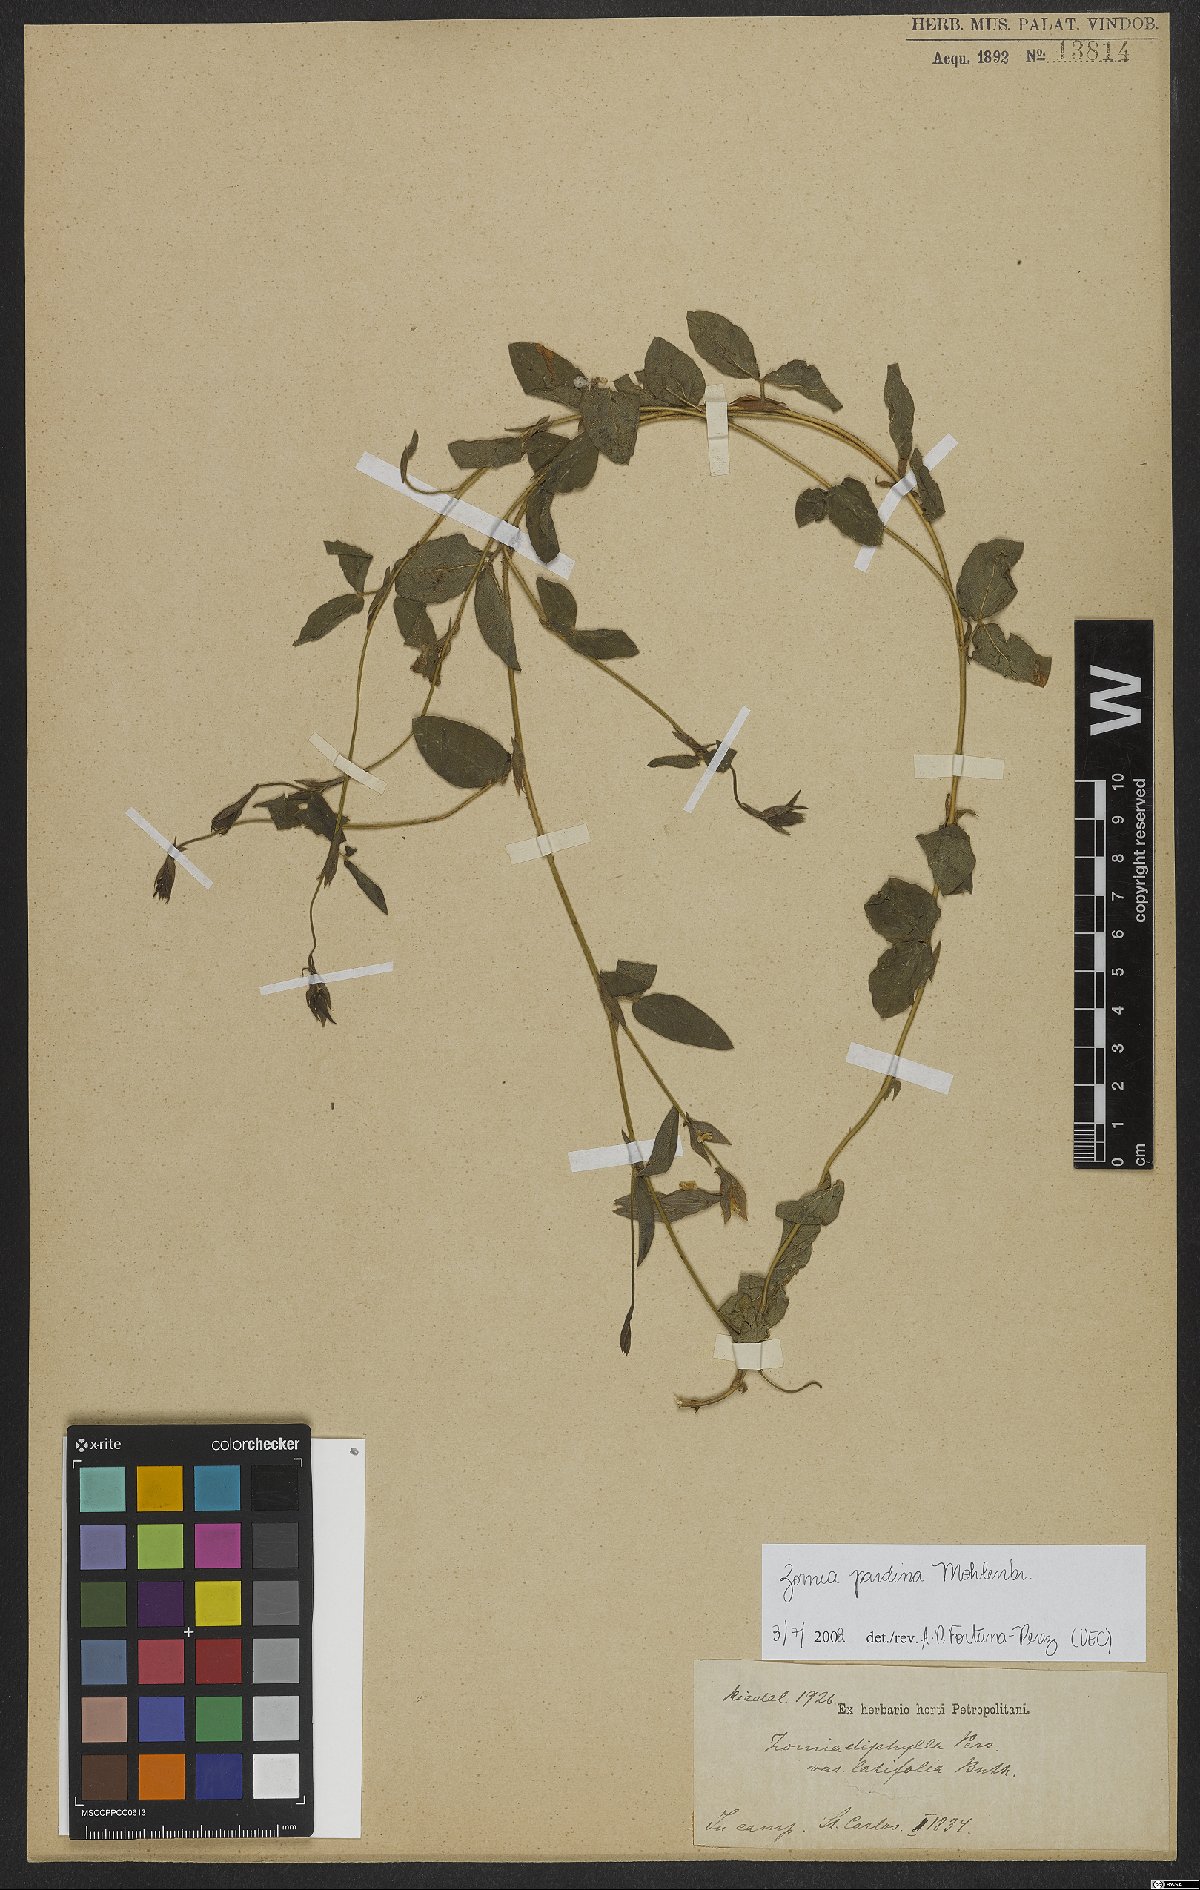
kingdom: Plantae
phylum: Tracheophyta
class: Magnoliopsida
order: Fabales
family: Fabaceae
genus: Zornia
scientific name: Zornia pardina
